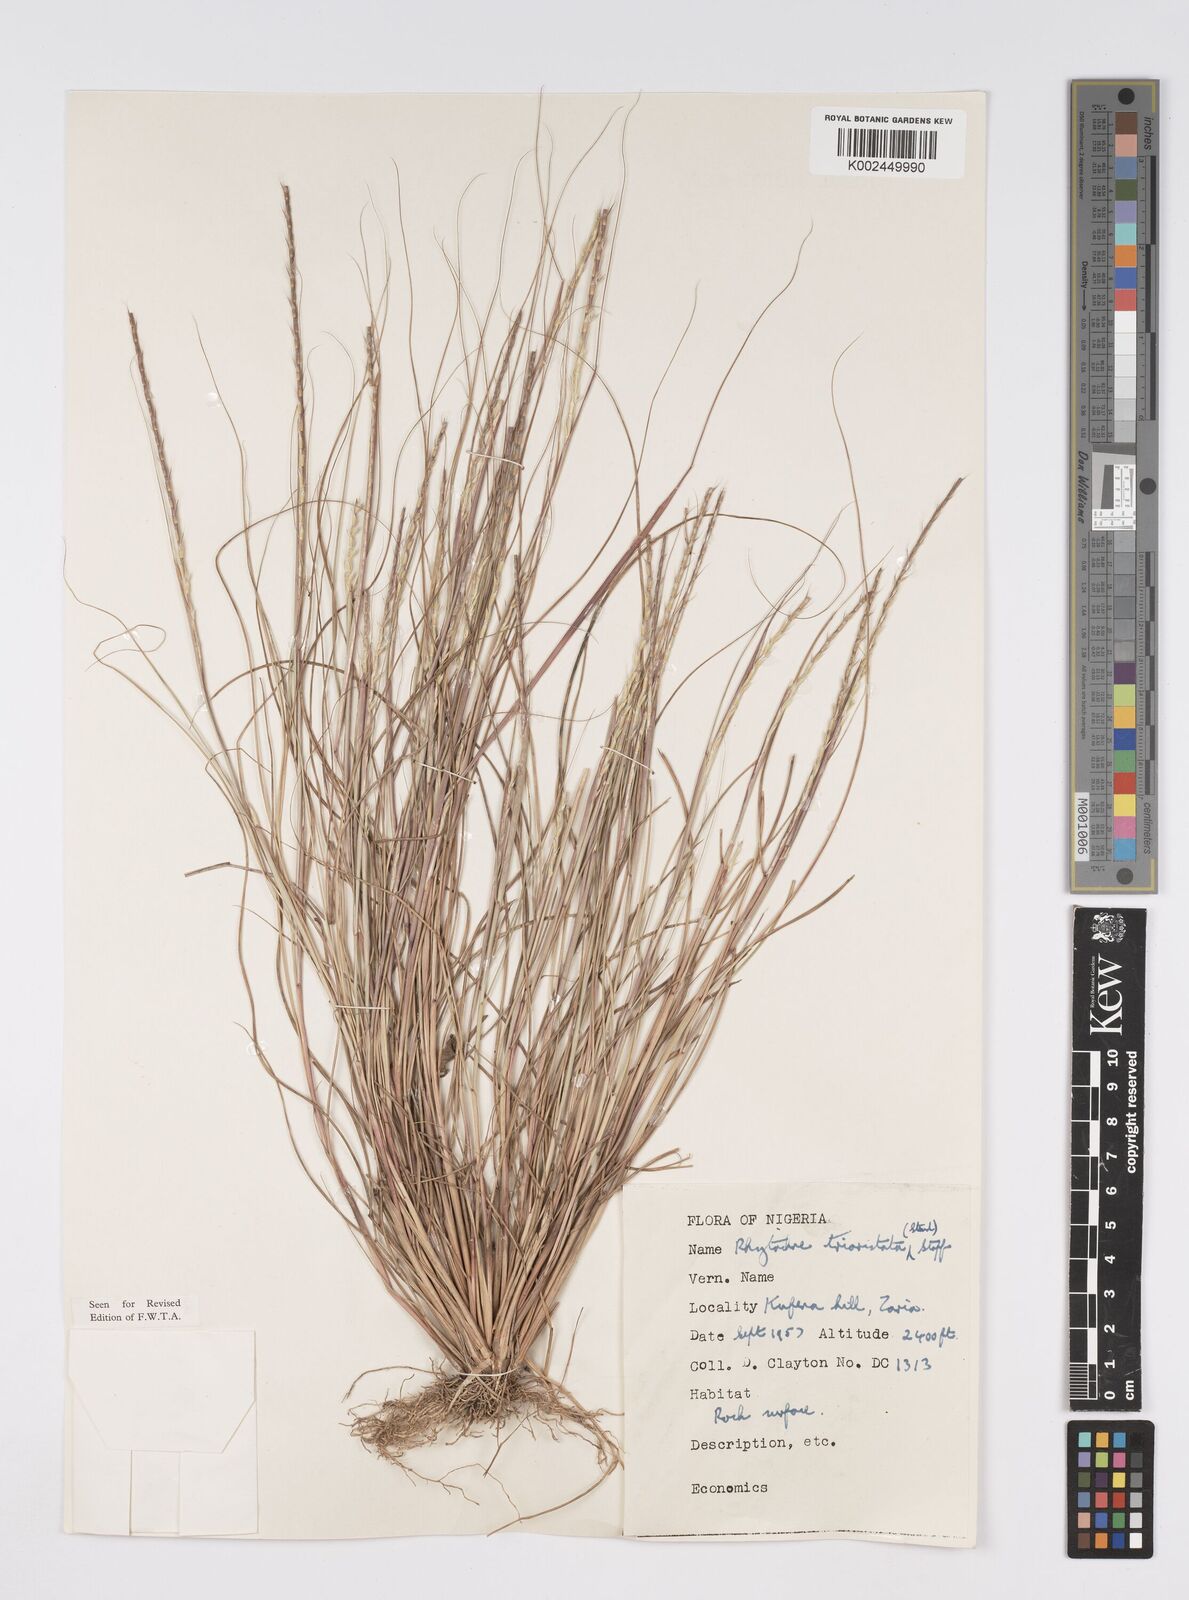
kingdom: Plantae
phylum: Tracheophyta
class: Liliopsida
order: Poales
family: Poaceae
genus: Rhytachne
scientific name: Rhytachne triaristata
